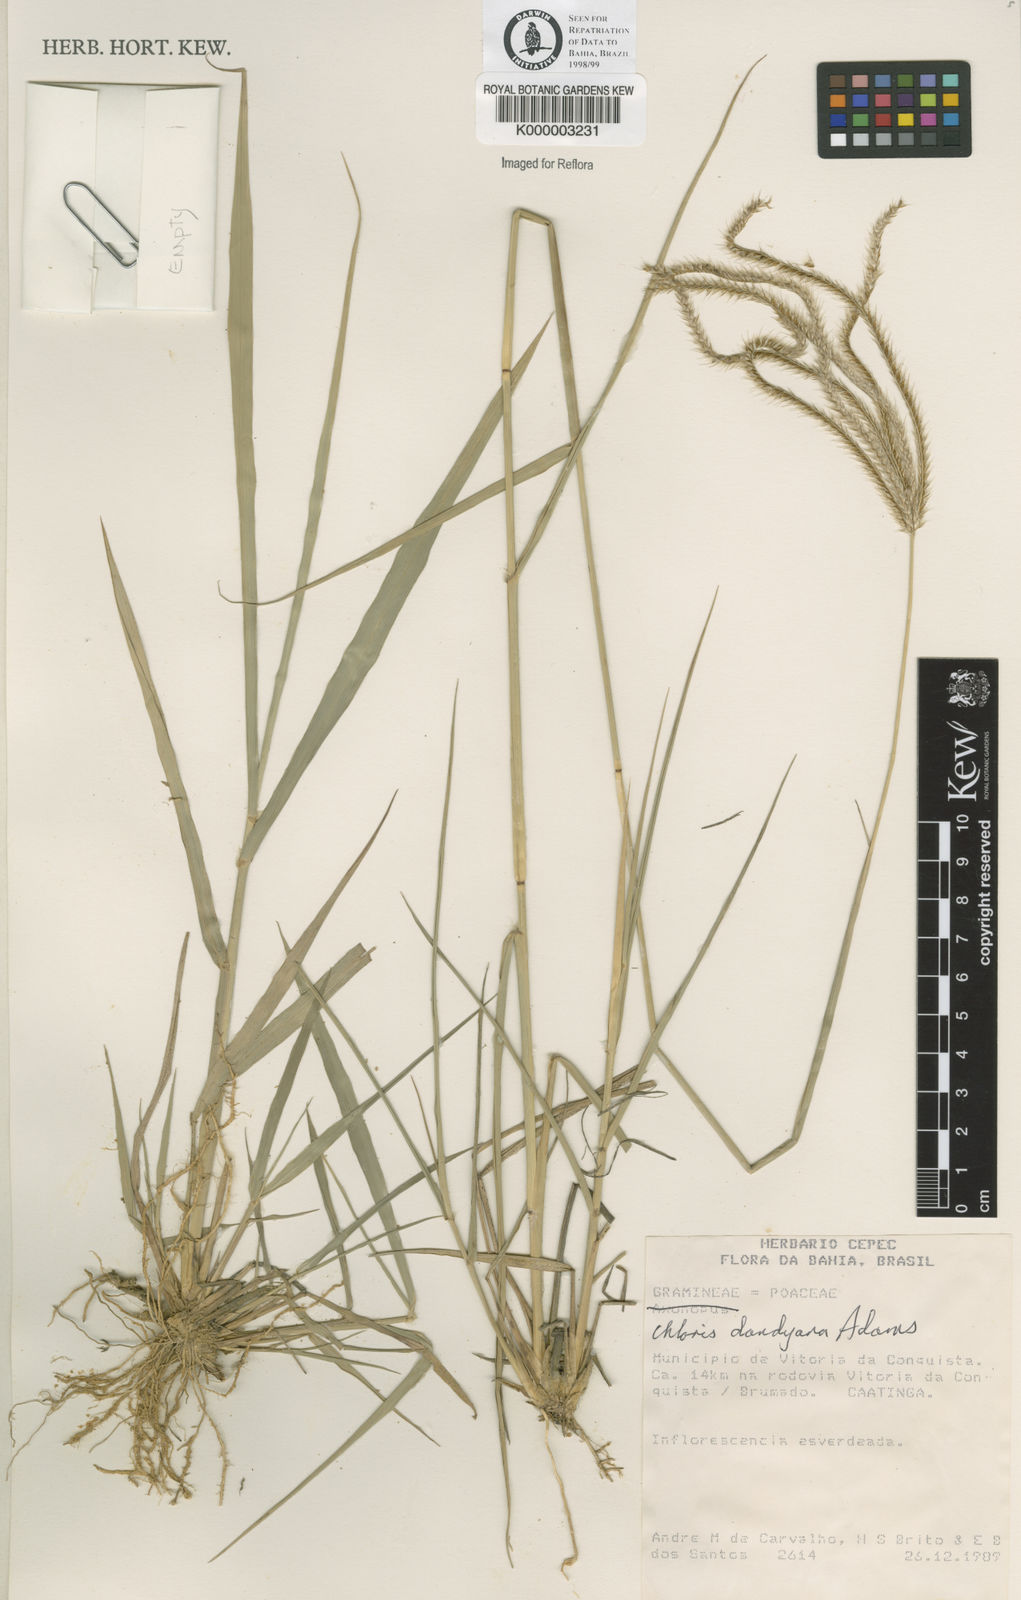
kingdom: Plantae
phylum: Tracheophyta
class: Liliopsida
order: Poales
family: Poaceae
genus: Stapfochloa
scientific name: Stapfochloa elata
